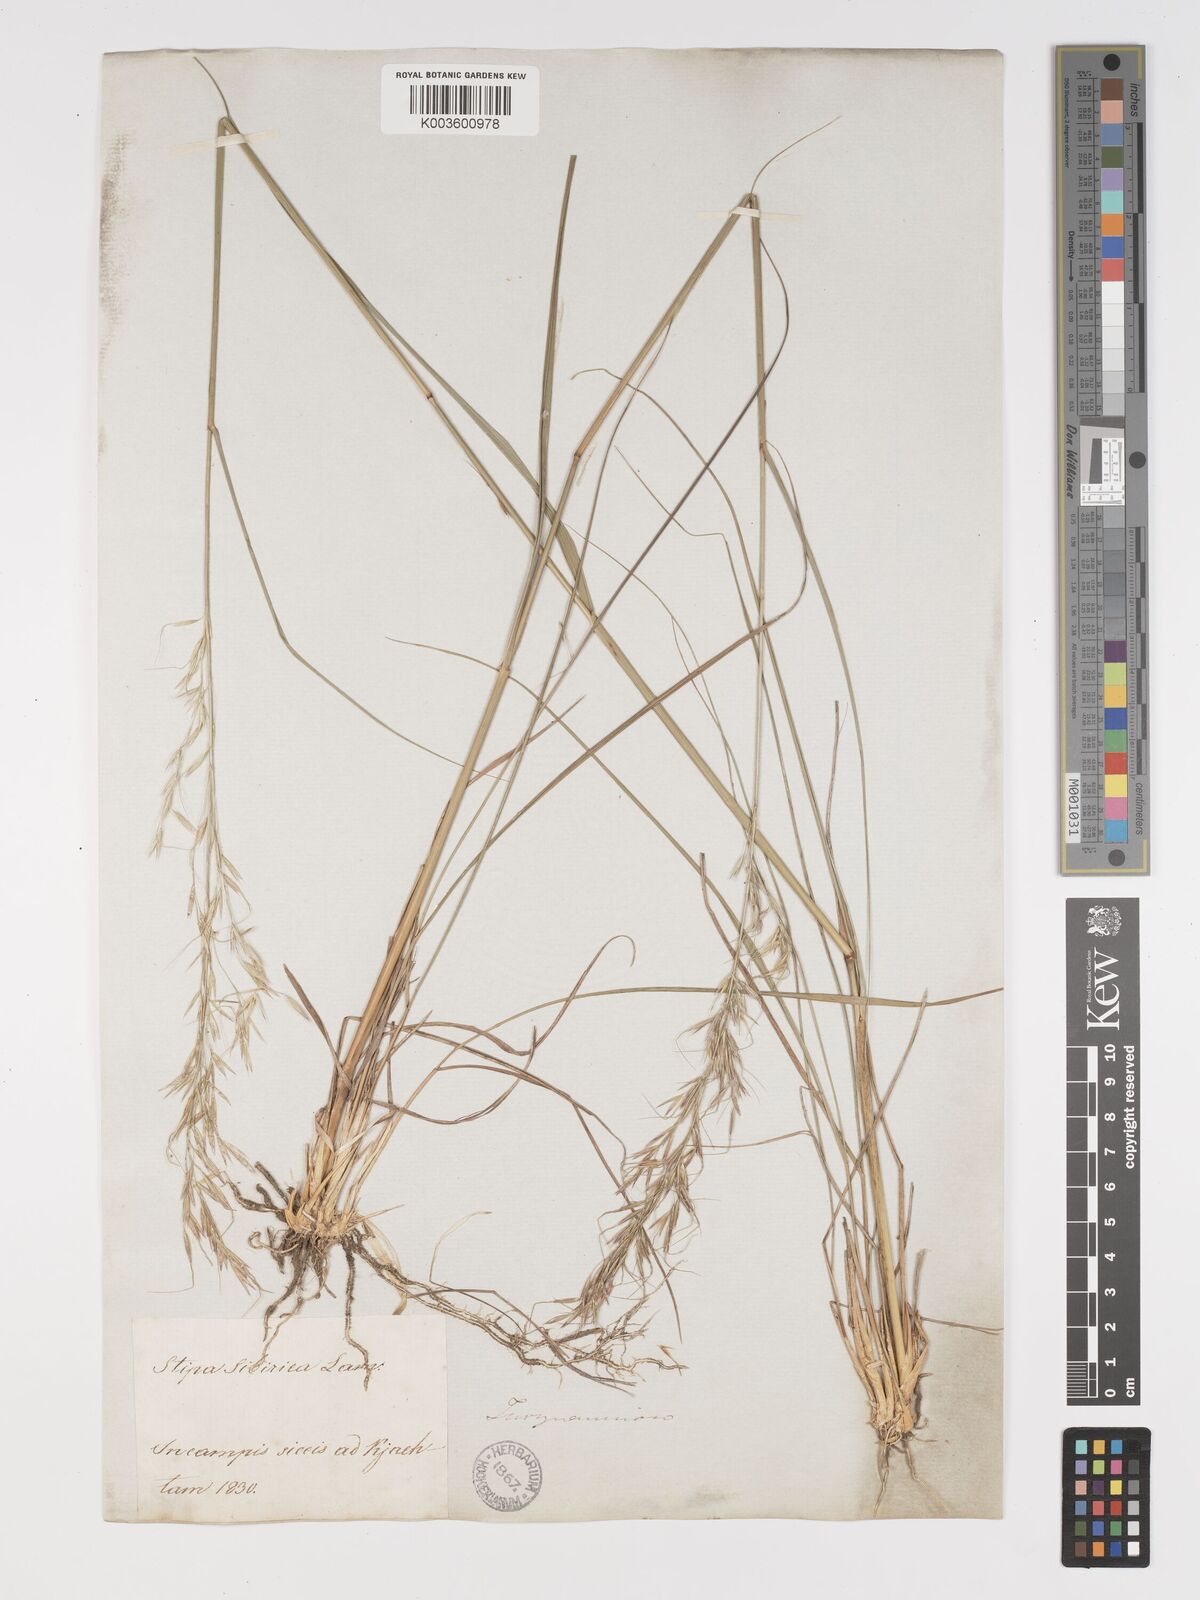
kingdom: Plantae
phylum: Tracheophyta
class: Liliopsida
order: Poales
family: Poaceae
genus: Achnatherum
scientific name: Achnatherum sibiricum
